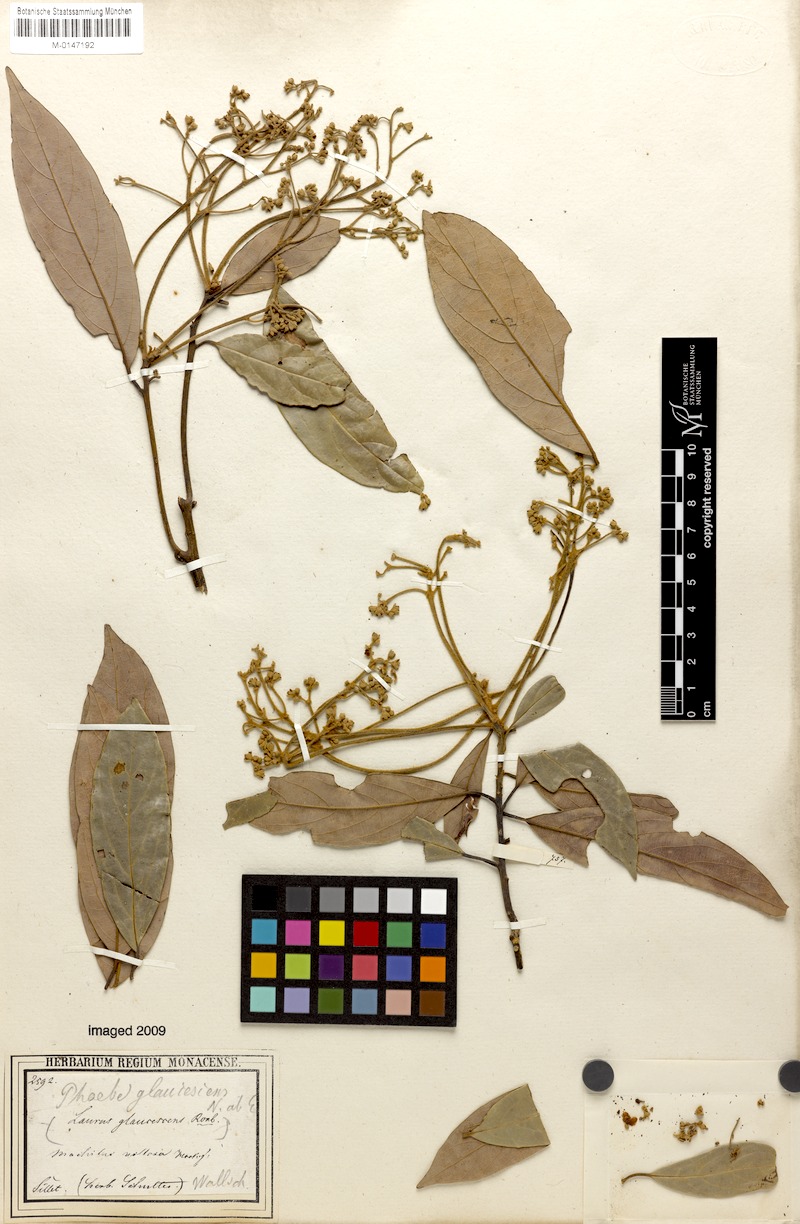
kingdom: Plantae
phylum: Tracheophyta
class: Magnoliopsida
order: Laurales
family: Lauraceae
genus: Machilus
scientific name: Machilus glaucescens
